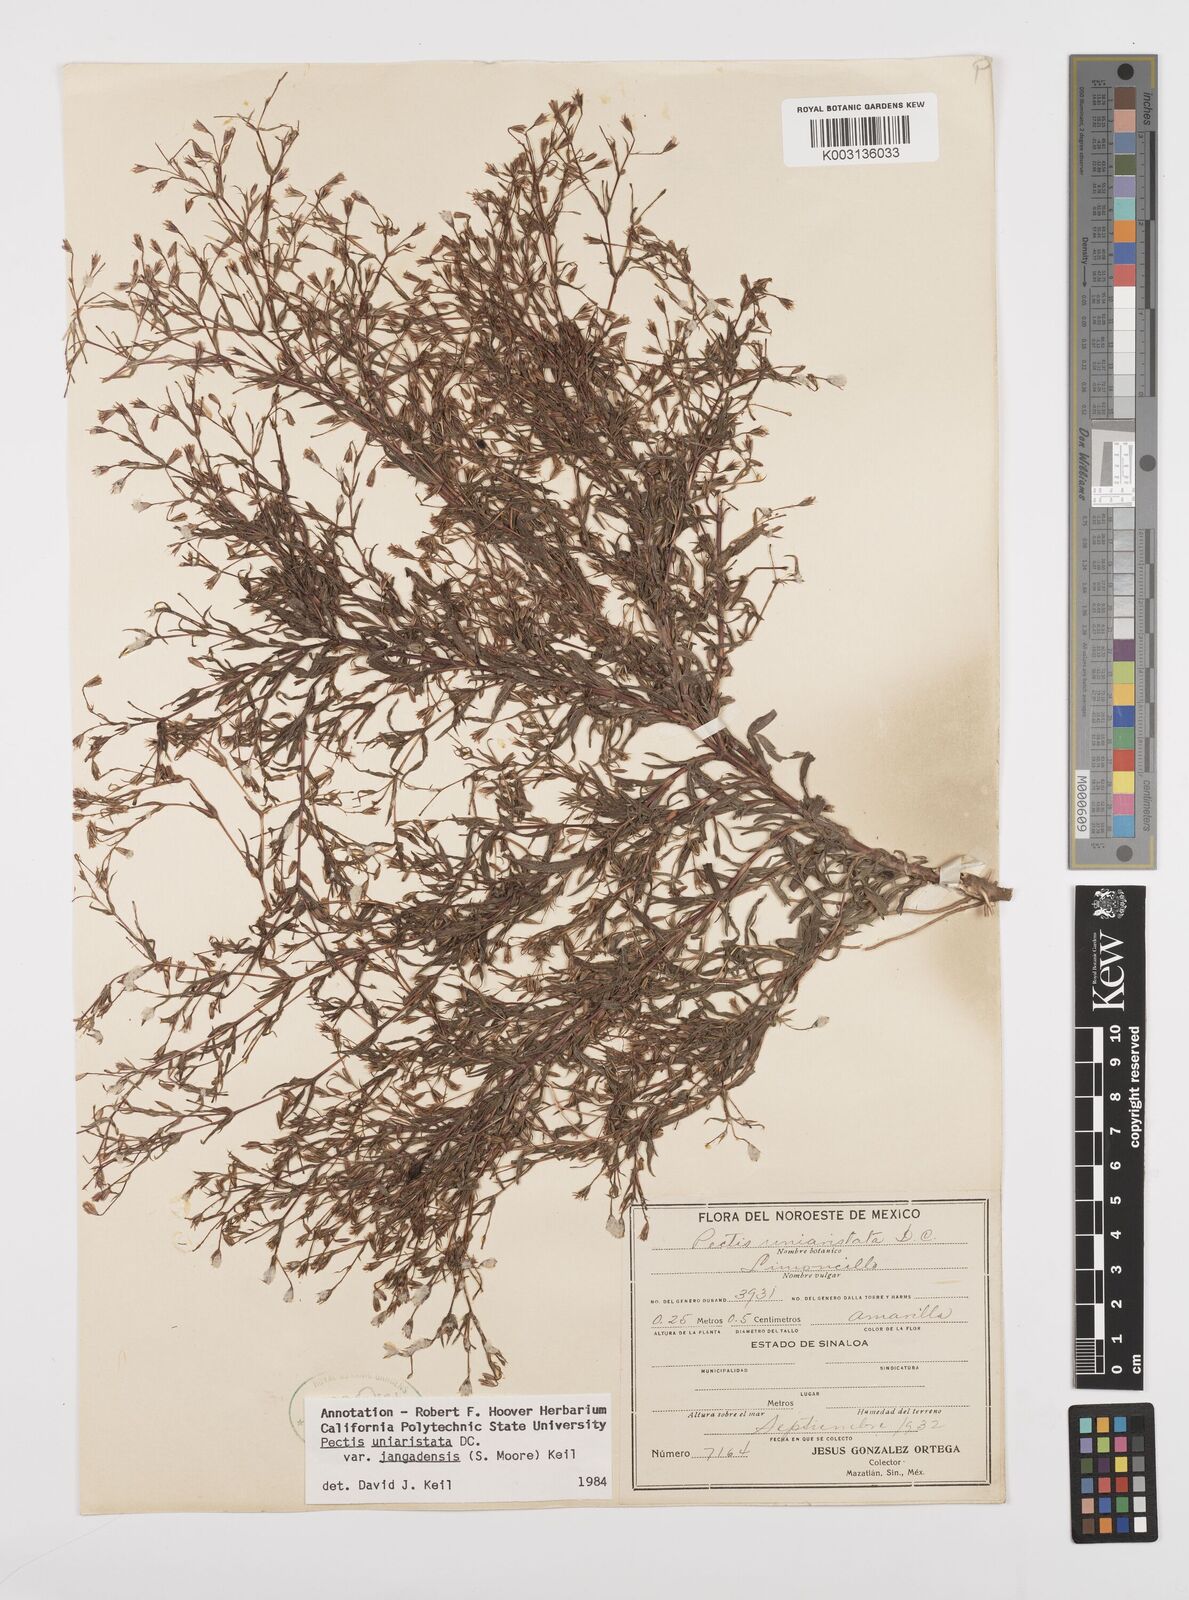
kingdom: Plantae
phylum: Tracheophyta
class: Magnoliopsida
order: Asterales
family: Asteraceae
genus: Pectis
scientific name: Pectis uniaristata
